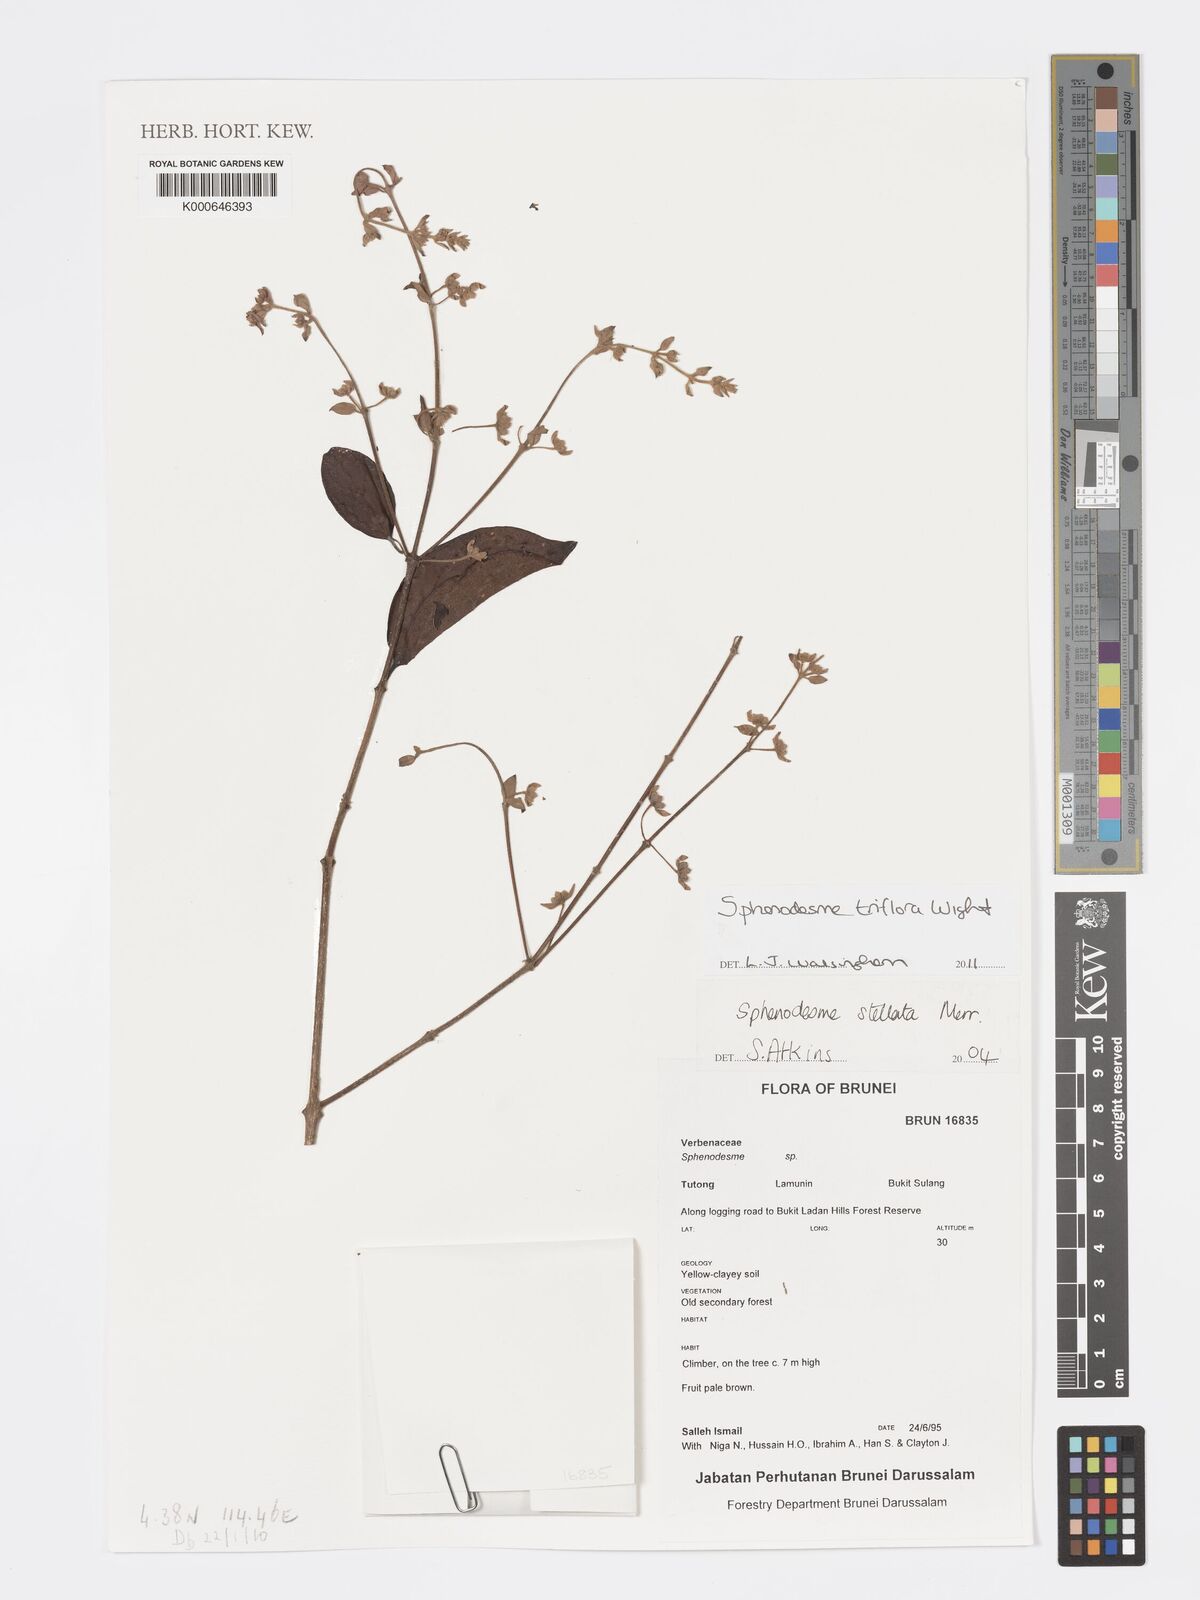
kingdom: Plantae
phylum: Tracheophyta
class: Magnoliopsida
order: Lamiales
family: Lamiaceae
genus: Sphenodesme
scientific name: Sphenodesme triflora
